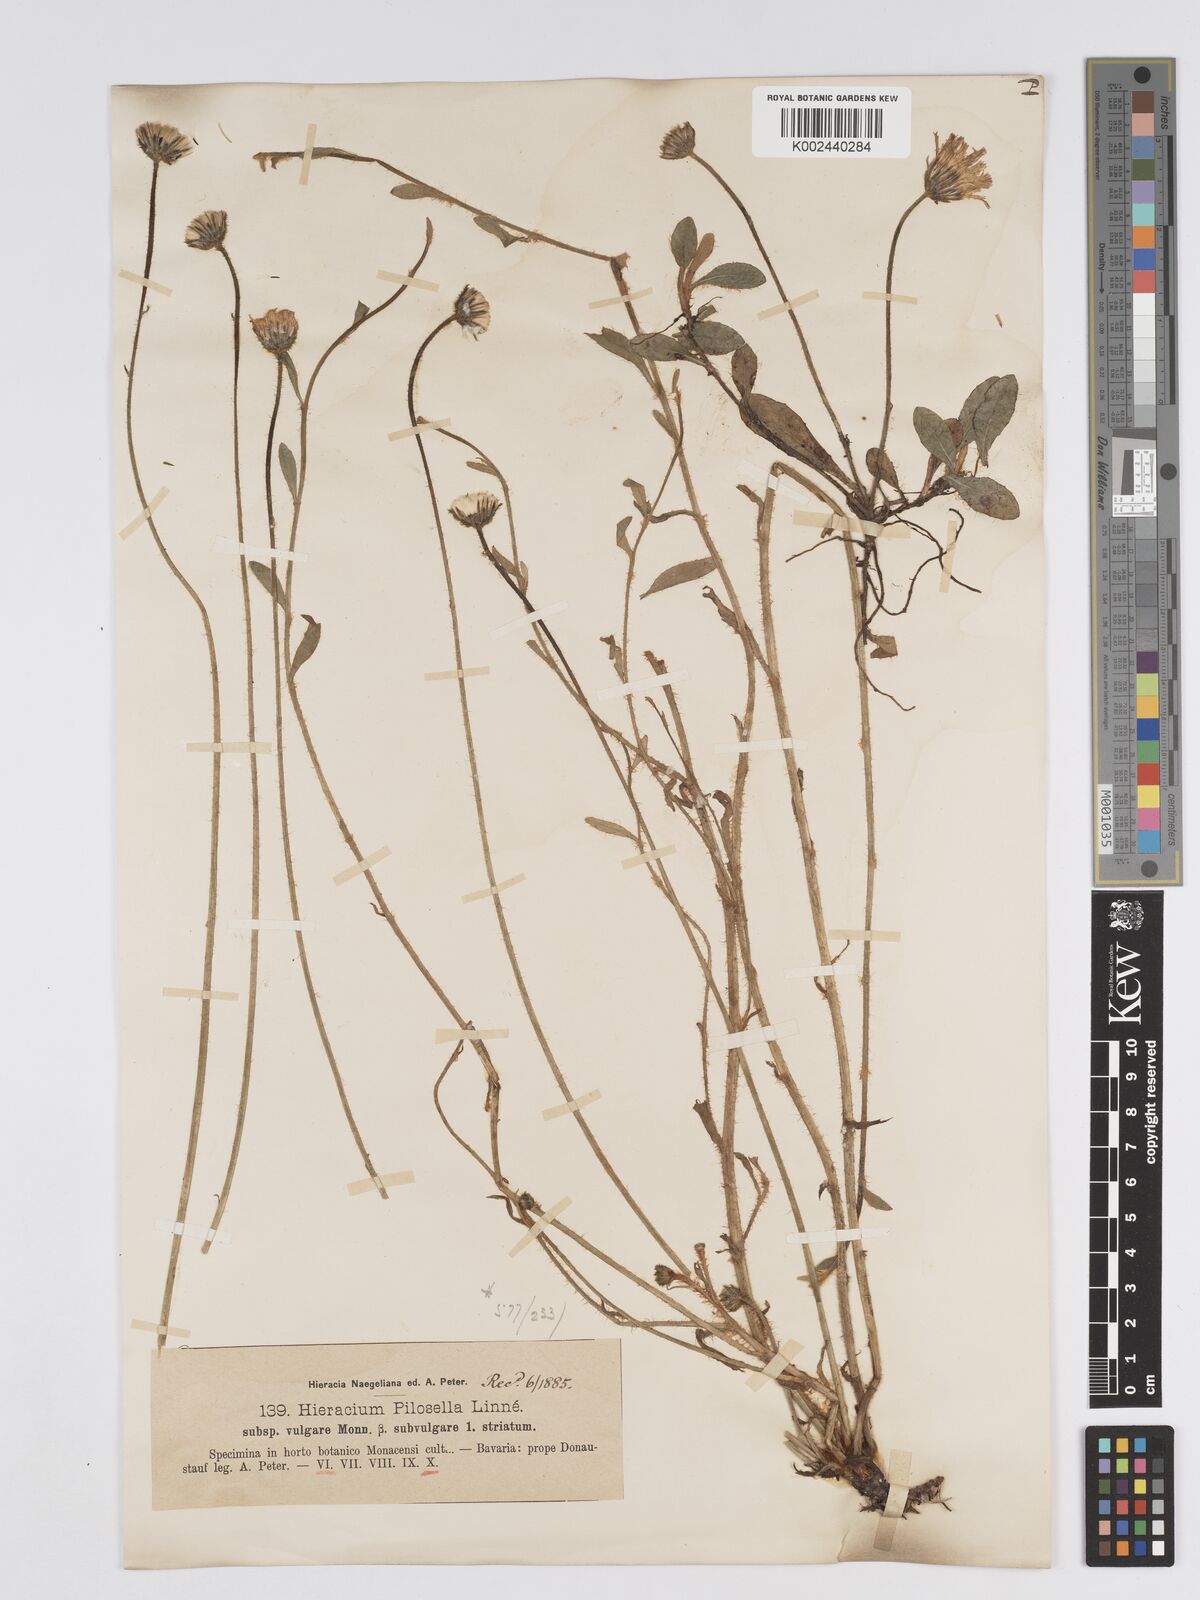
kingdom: Plantae
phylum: Tracheophyta
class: Magnoliopsida
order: Asterales
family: Asteraceae
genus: Pilosella
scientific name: Pilosella officinarum
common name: Mouse-ear hawkweed
